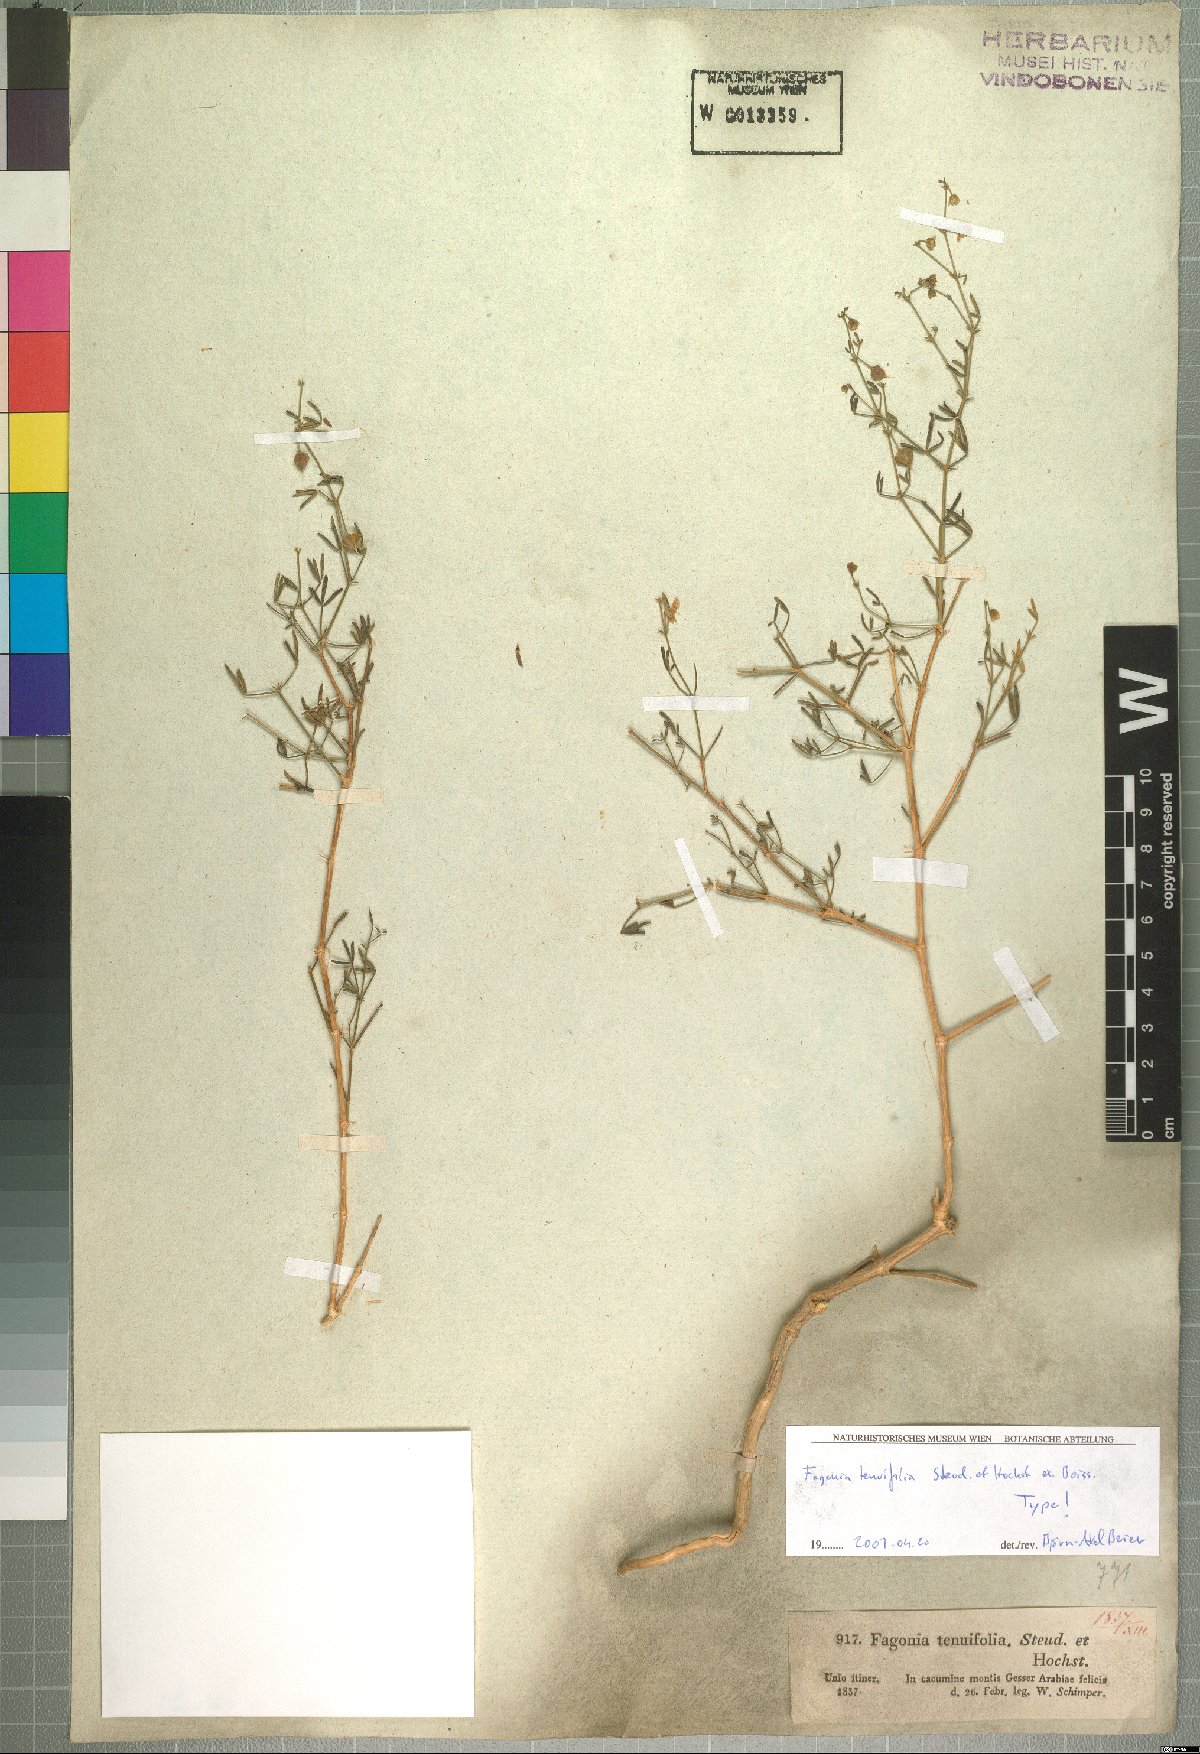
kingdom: Plantae
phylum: Tracheophyta
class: Magnoliopsida
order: Zygophyllales
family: Zygophyllaceae
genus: Fagonia
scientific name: Fagonia orientalis
